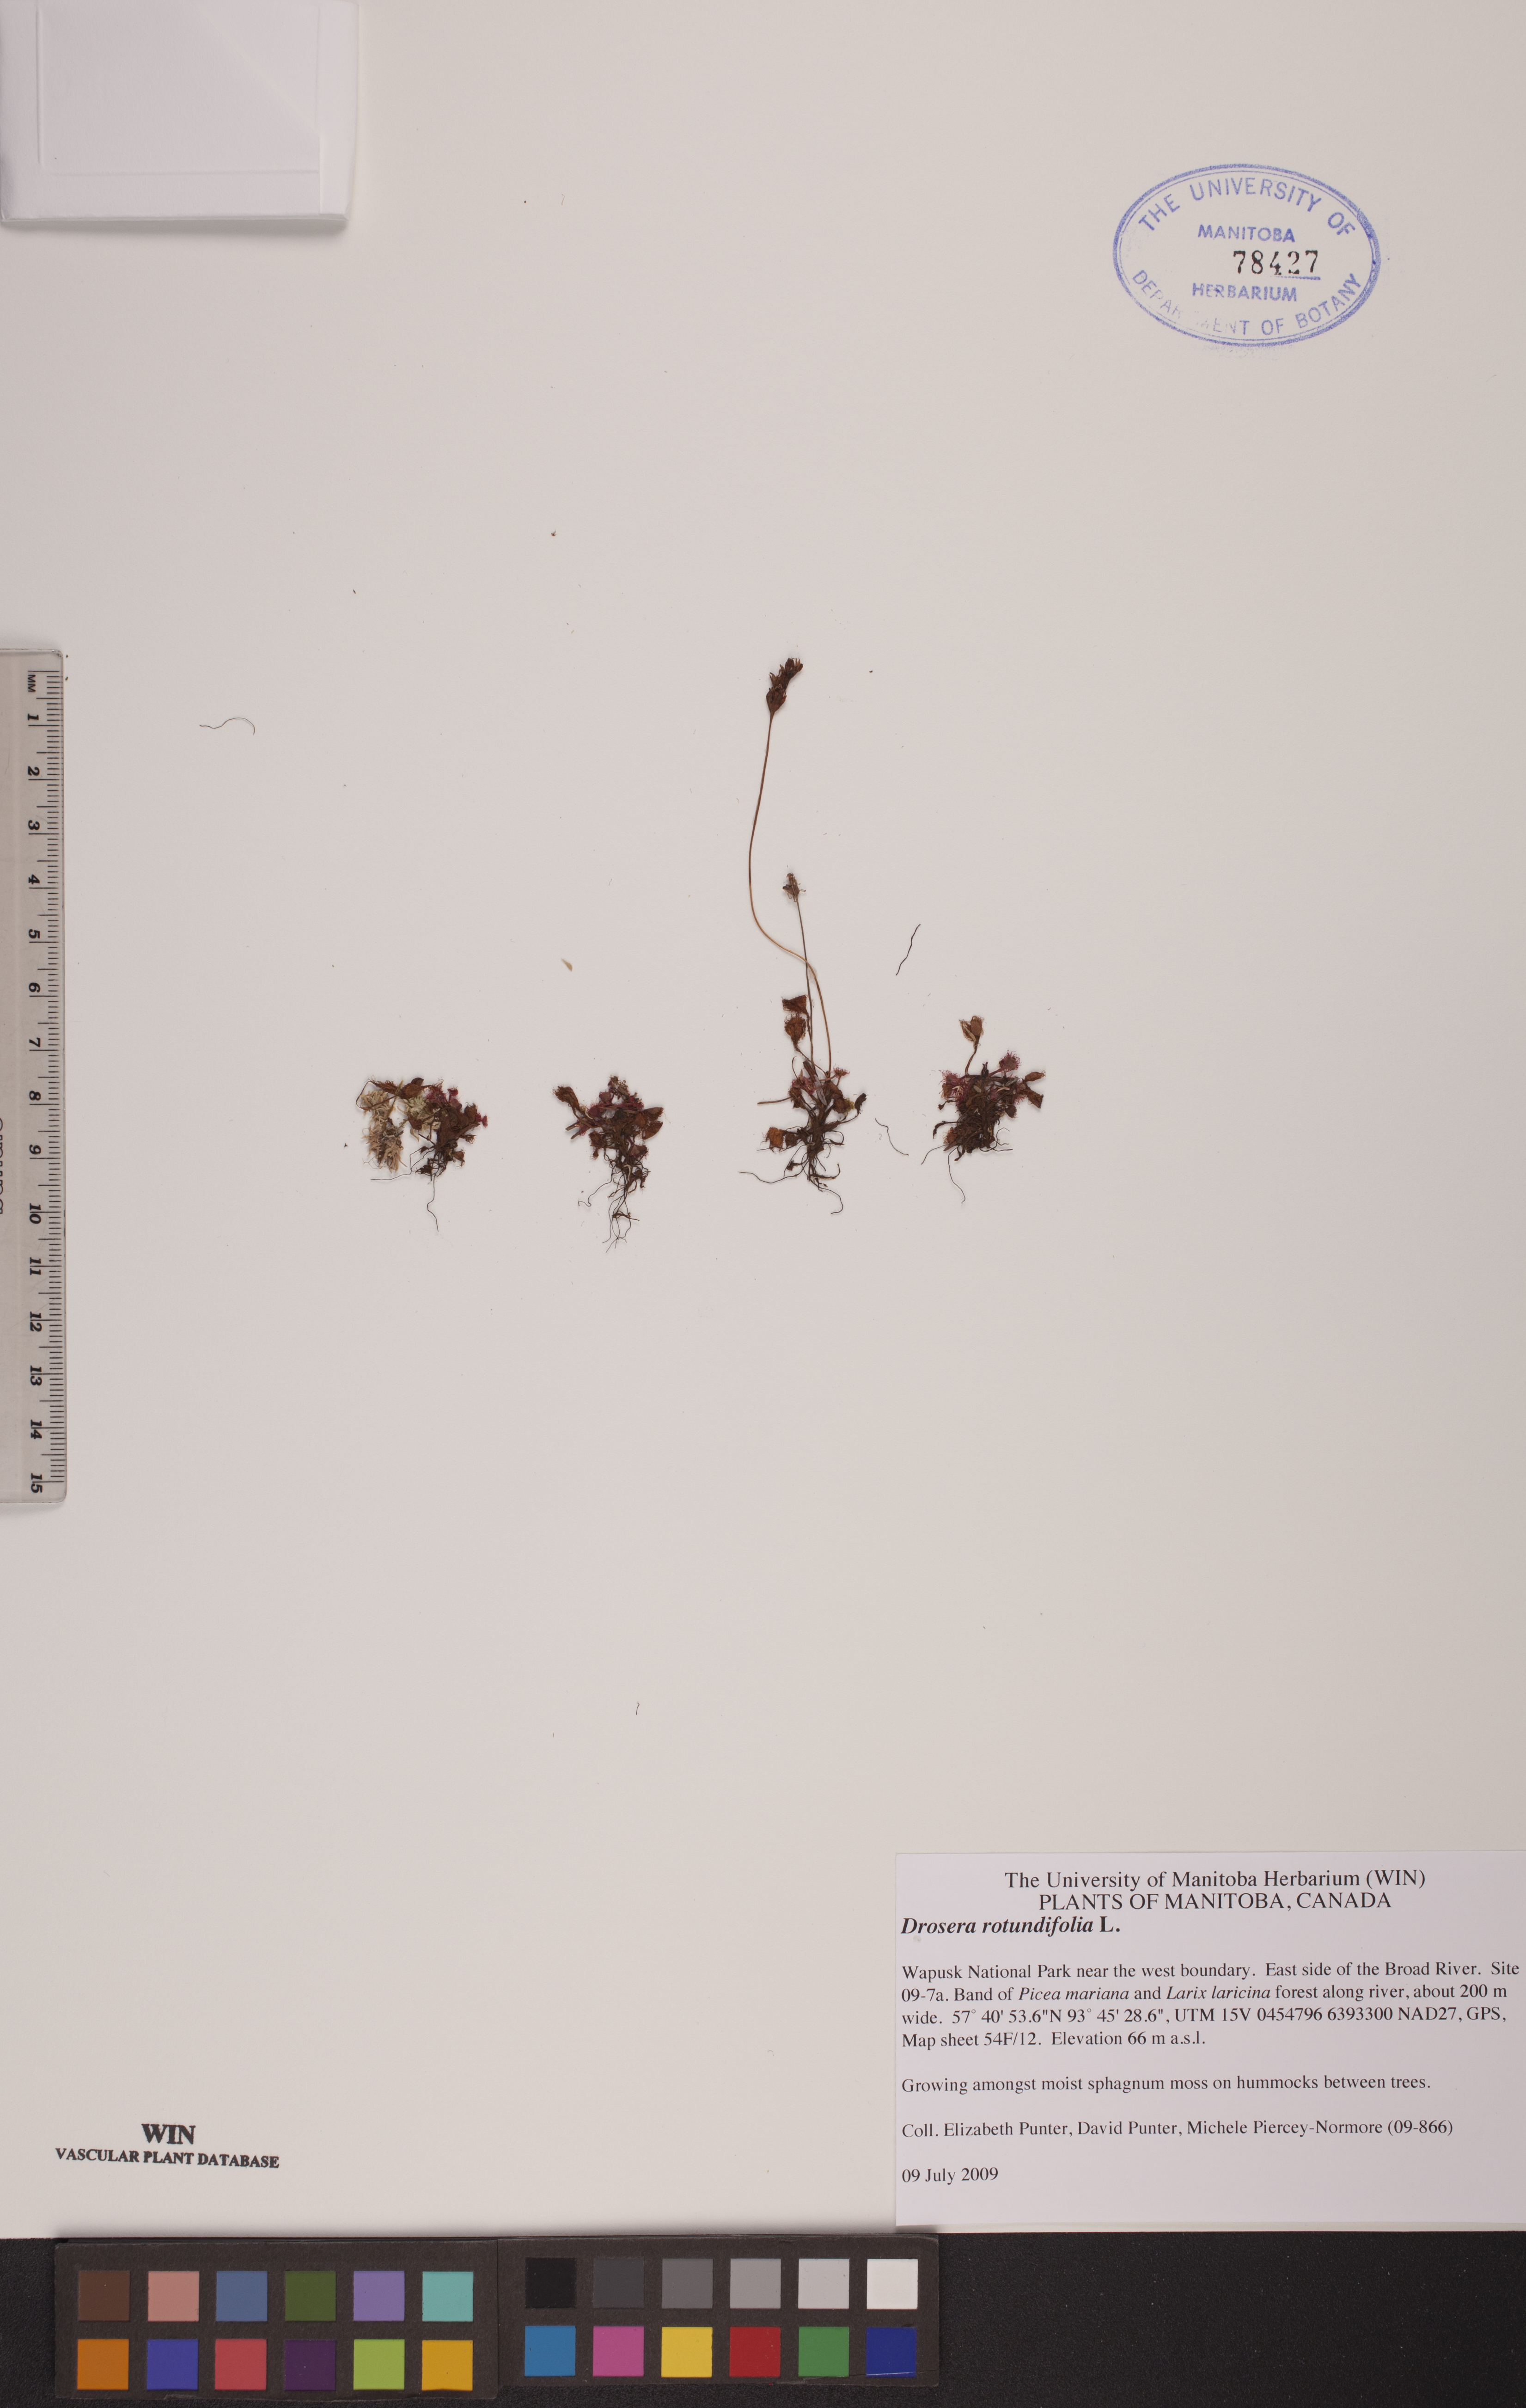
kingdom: Plantae
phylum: Tracheophyta
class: Magnoliopsida
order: Caryophyllales
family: Droseraceae
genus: Drosera
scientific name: Drosera rotundifolia
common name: Round-leaved sundew
